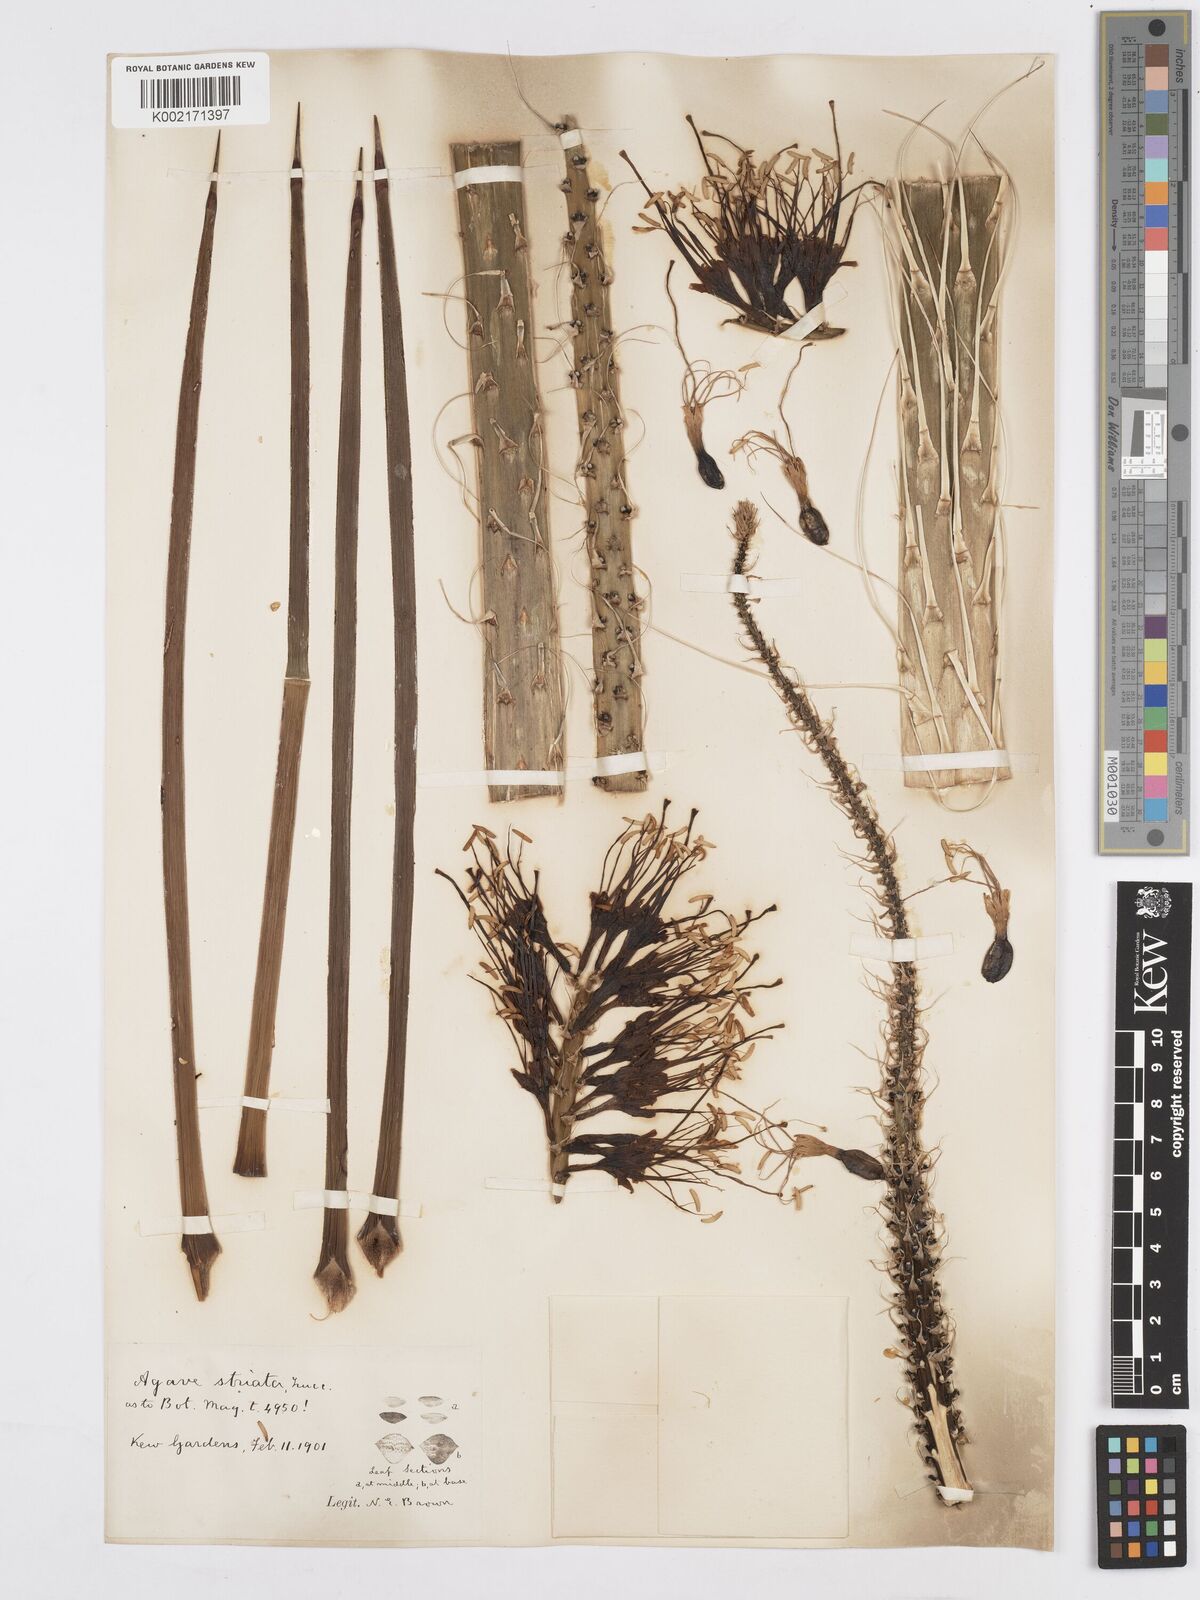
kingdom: Plantae
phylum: Tracheophyta
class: Liliopsida
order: Asparagales
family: Asparagaceae
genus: Agave
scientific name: Agave striata
